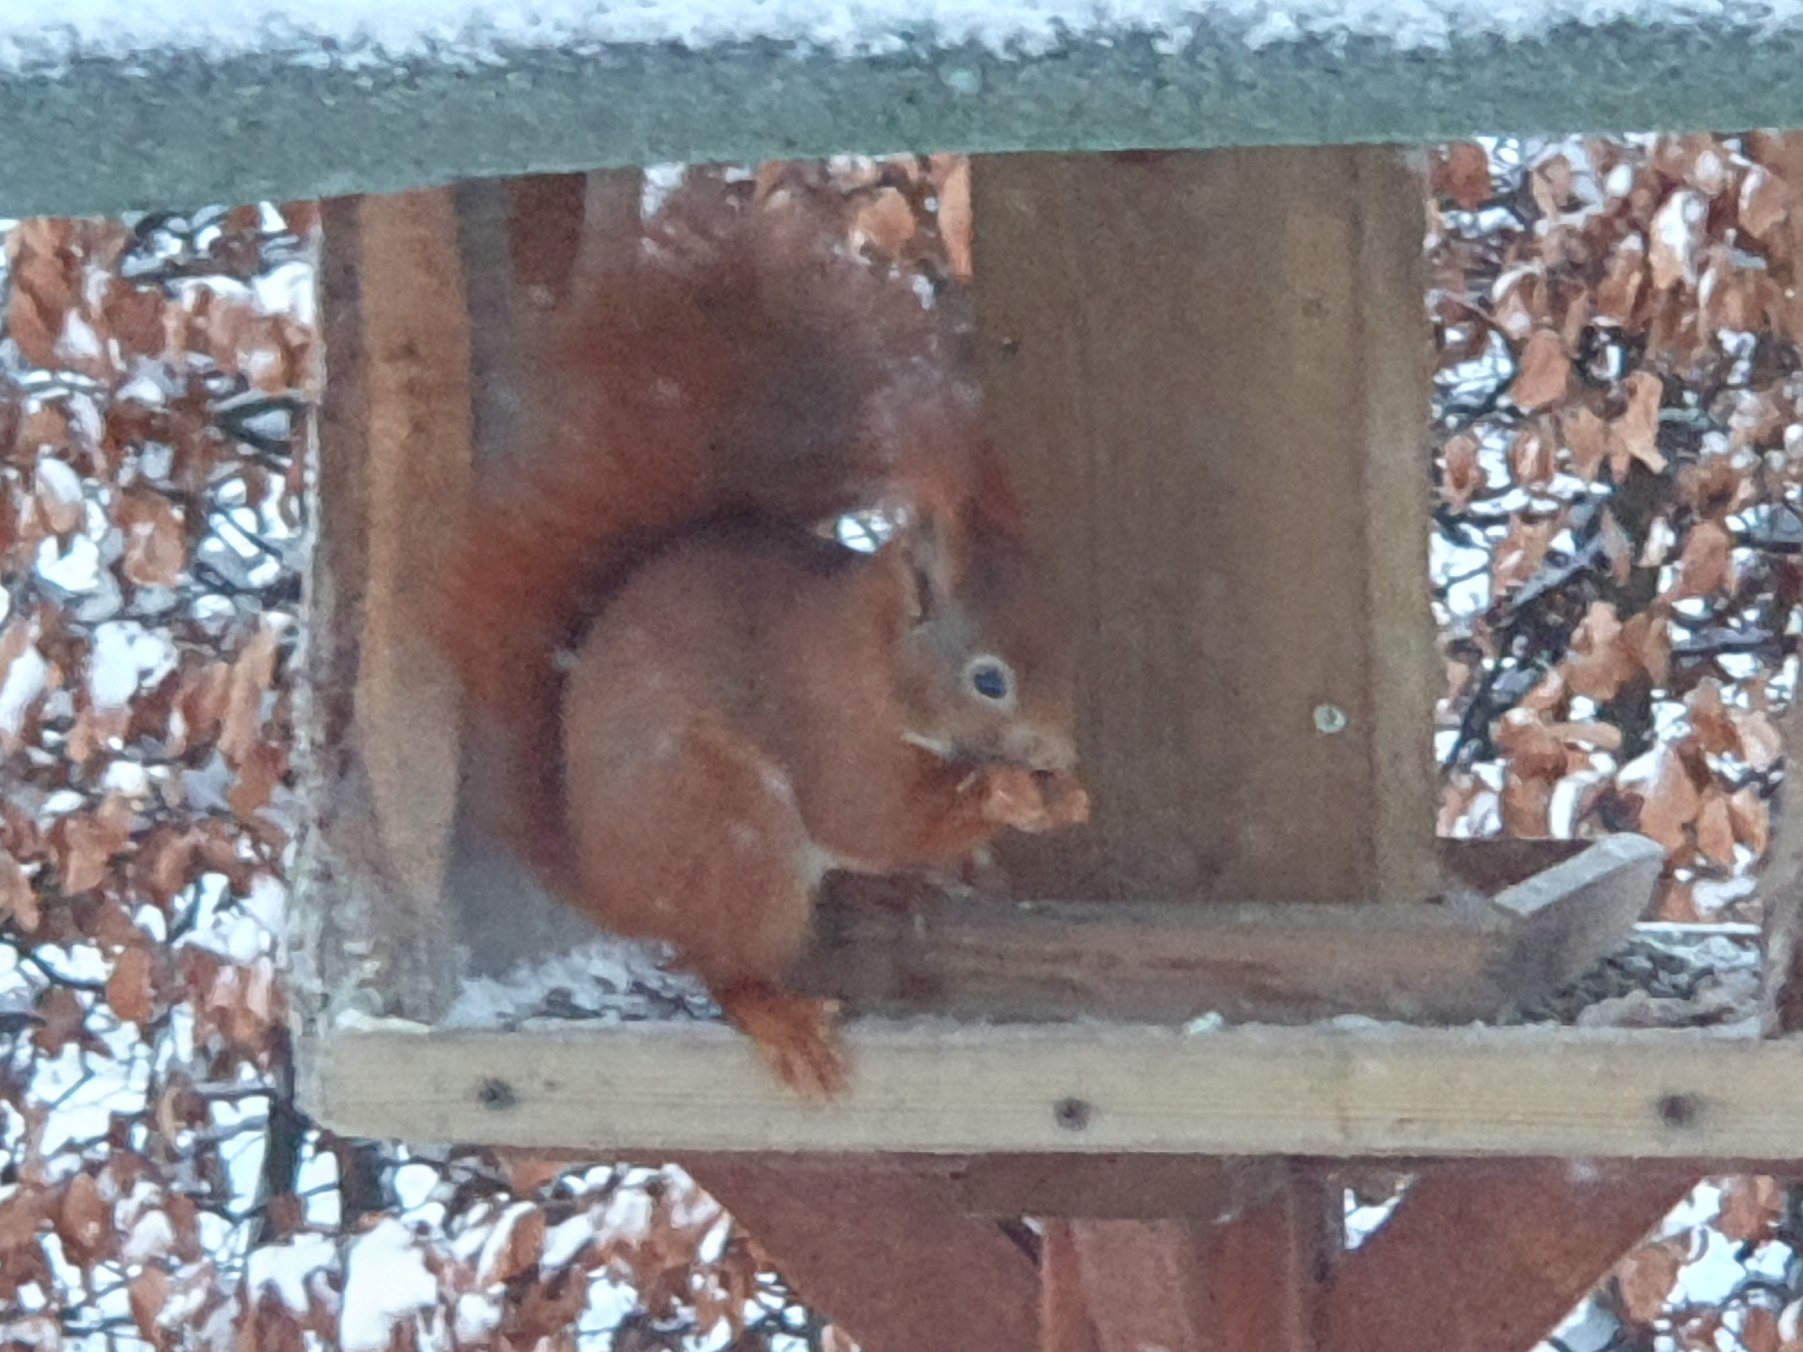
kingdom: Animalia
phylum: Chordata
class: Mammalia
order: Rodentia
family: Sciuridae
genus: Sciurus
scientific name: Sciurus vulgaris
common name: Egern
